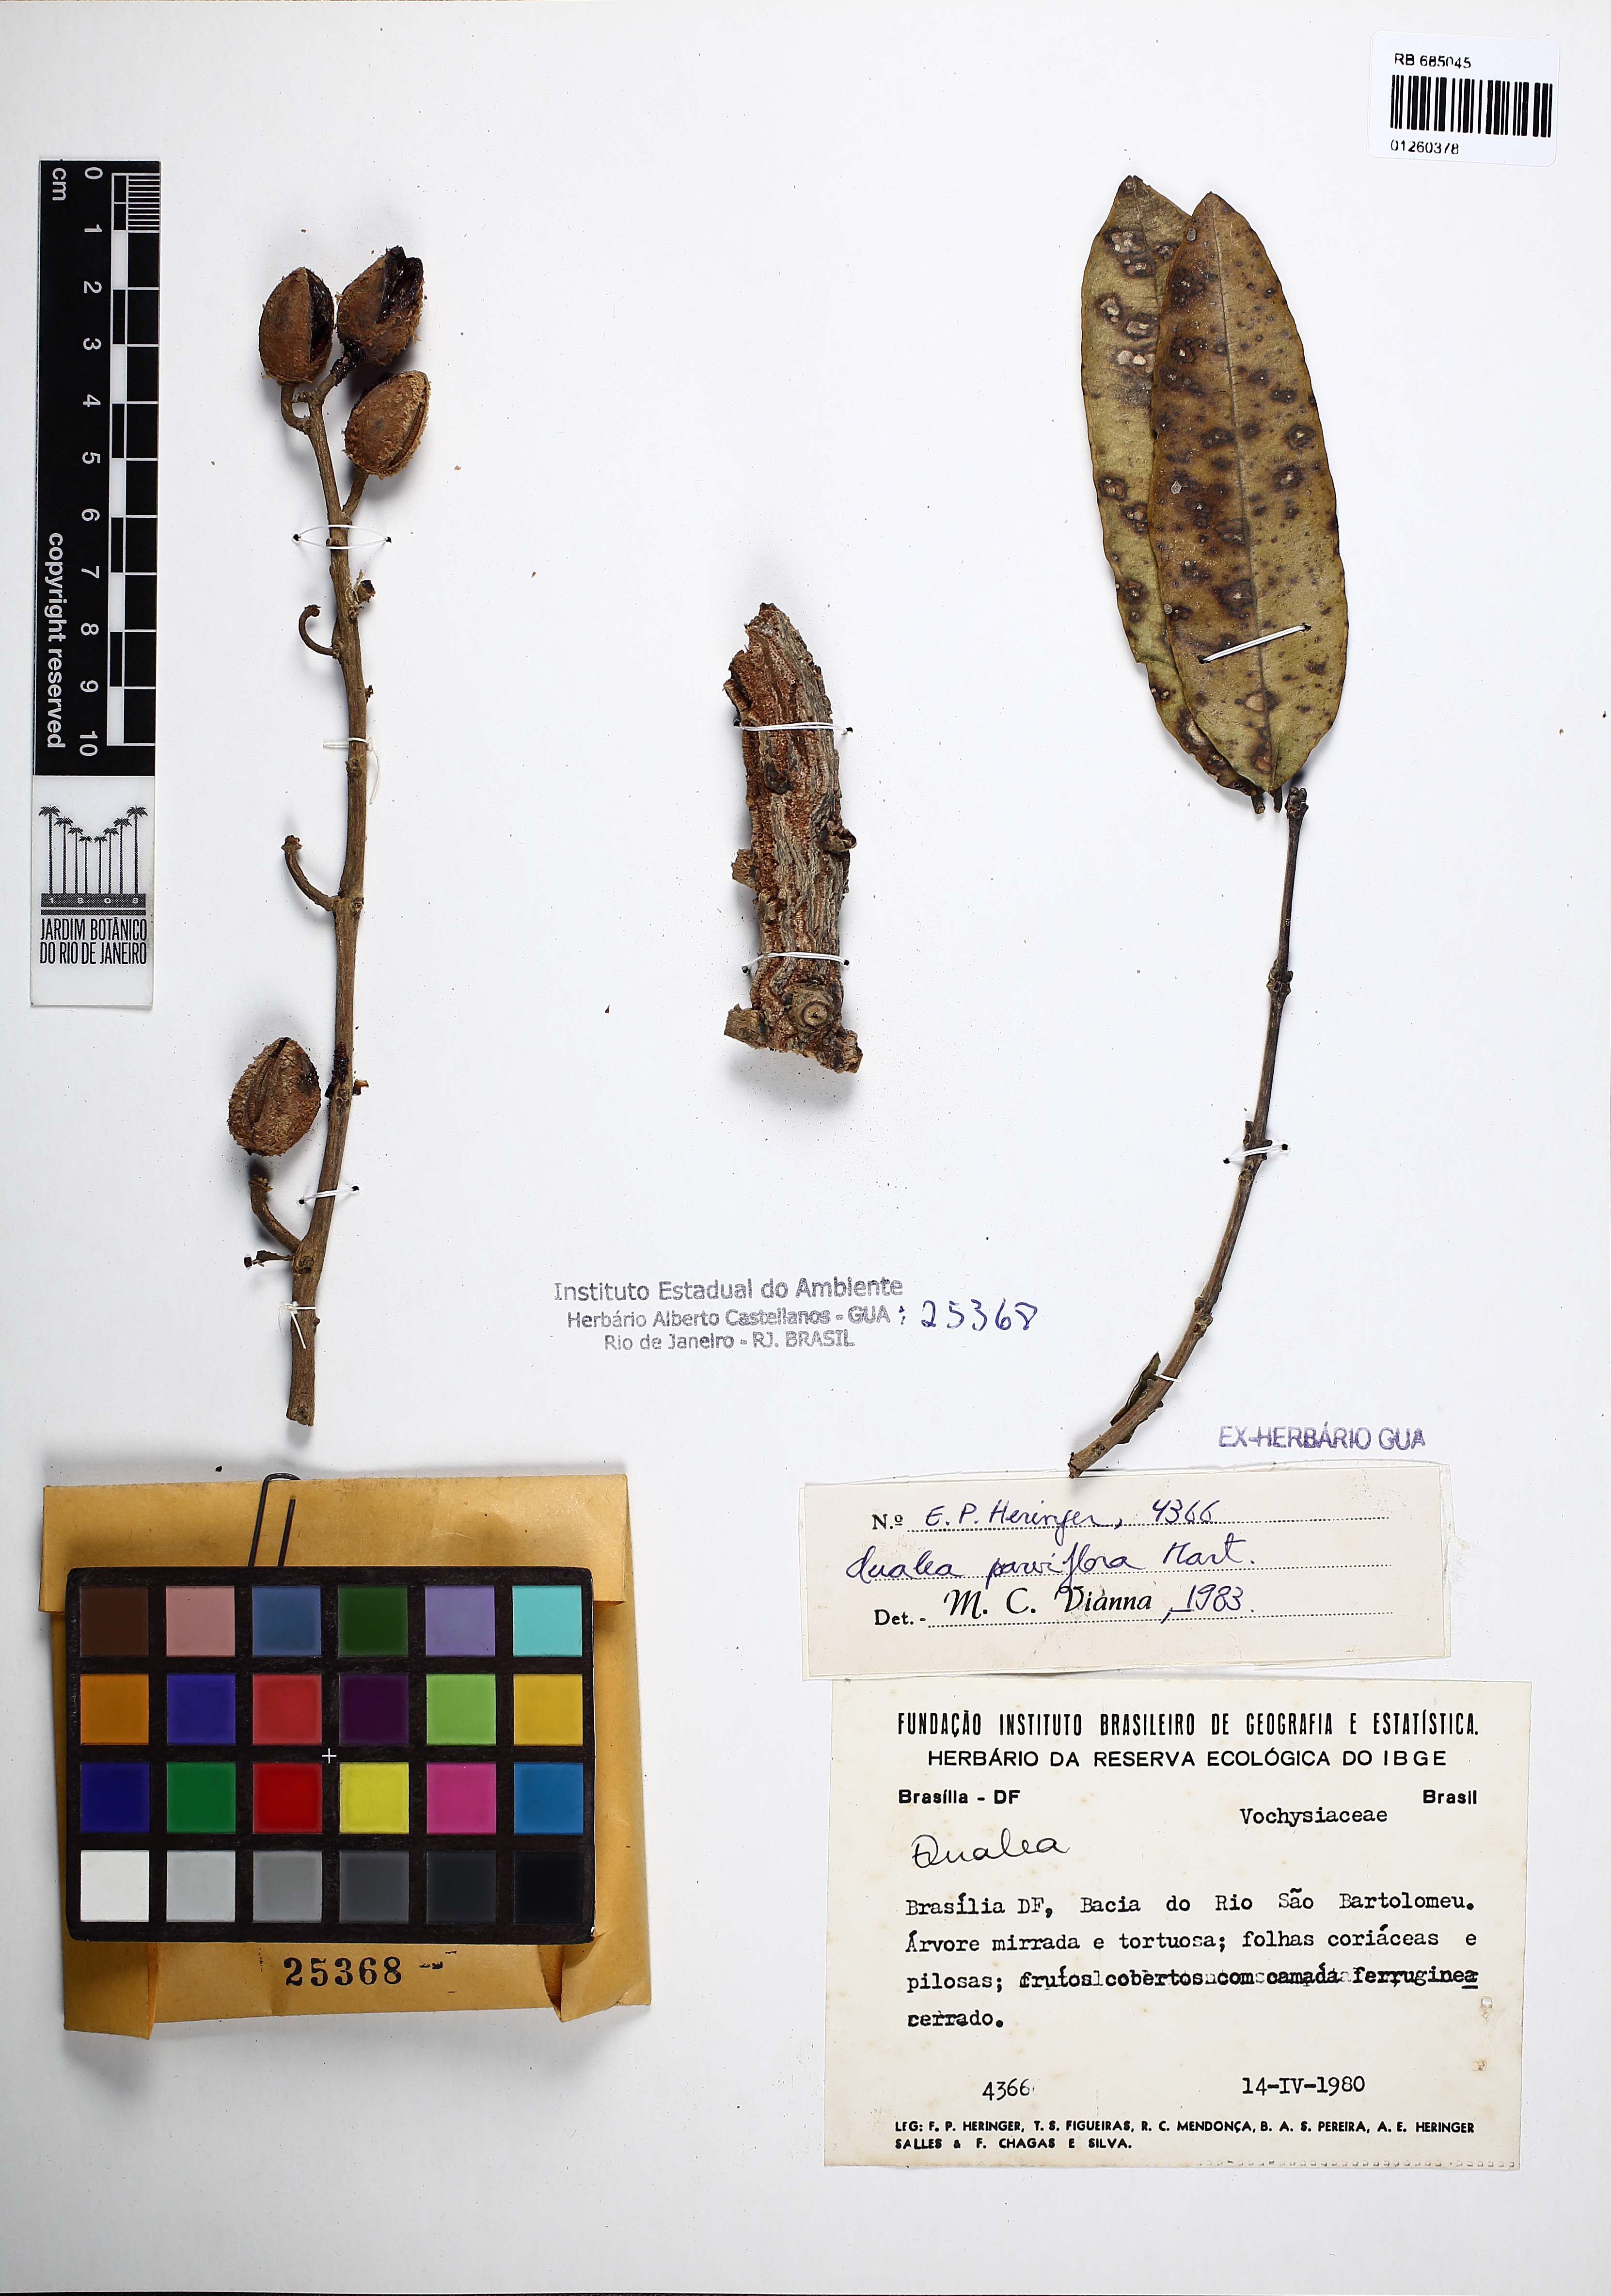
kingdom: Plantae
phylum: Tracheophyta
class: Magnoliopsida
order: Myrtales
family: Vochysiaceae
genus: Qualea
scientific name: Qualea parviflora
